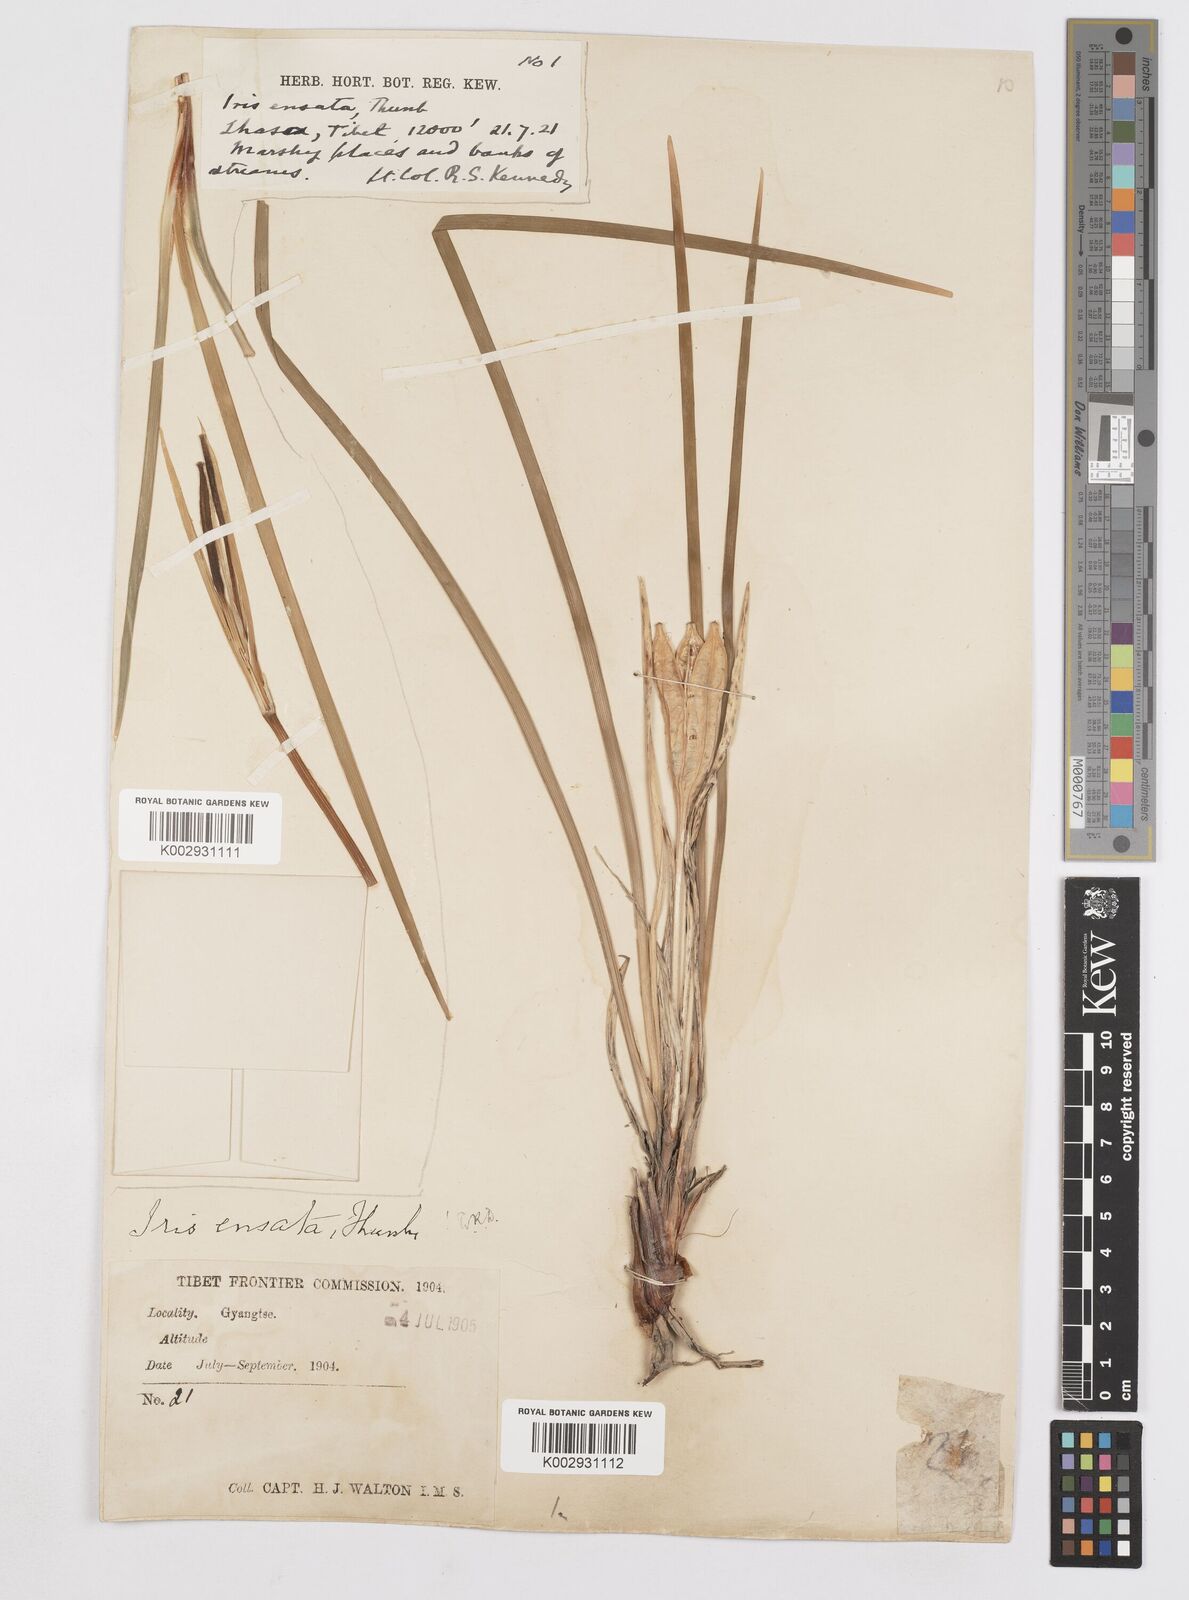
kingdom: Plantae
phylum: Tracheophyta
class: Liliopsida
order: Asparagales
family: Iridaceae
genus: Iris
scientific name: Iris ensata
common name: Beaked iris
